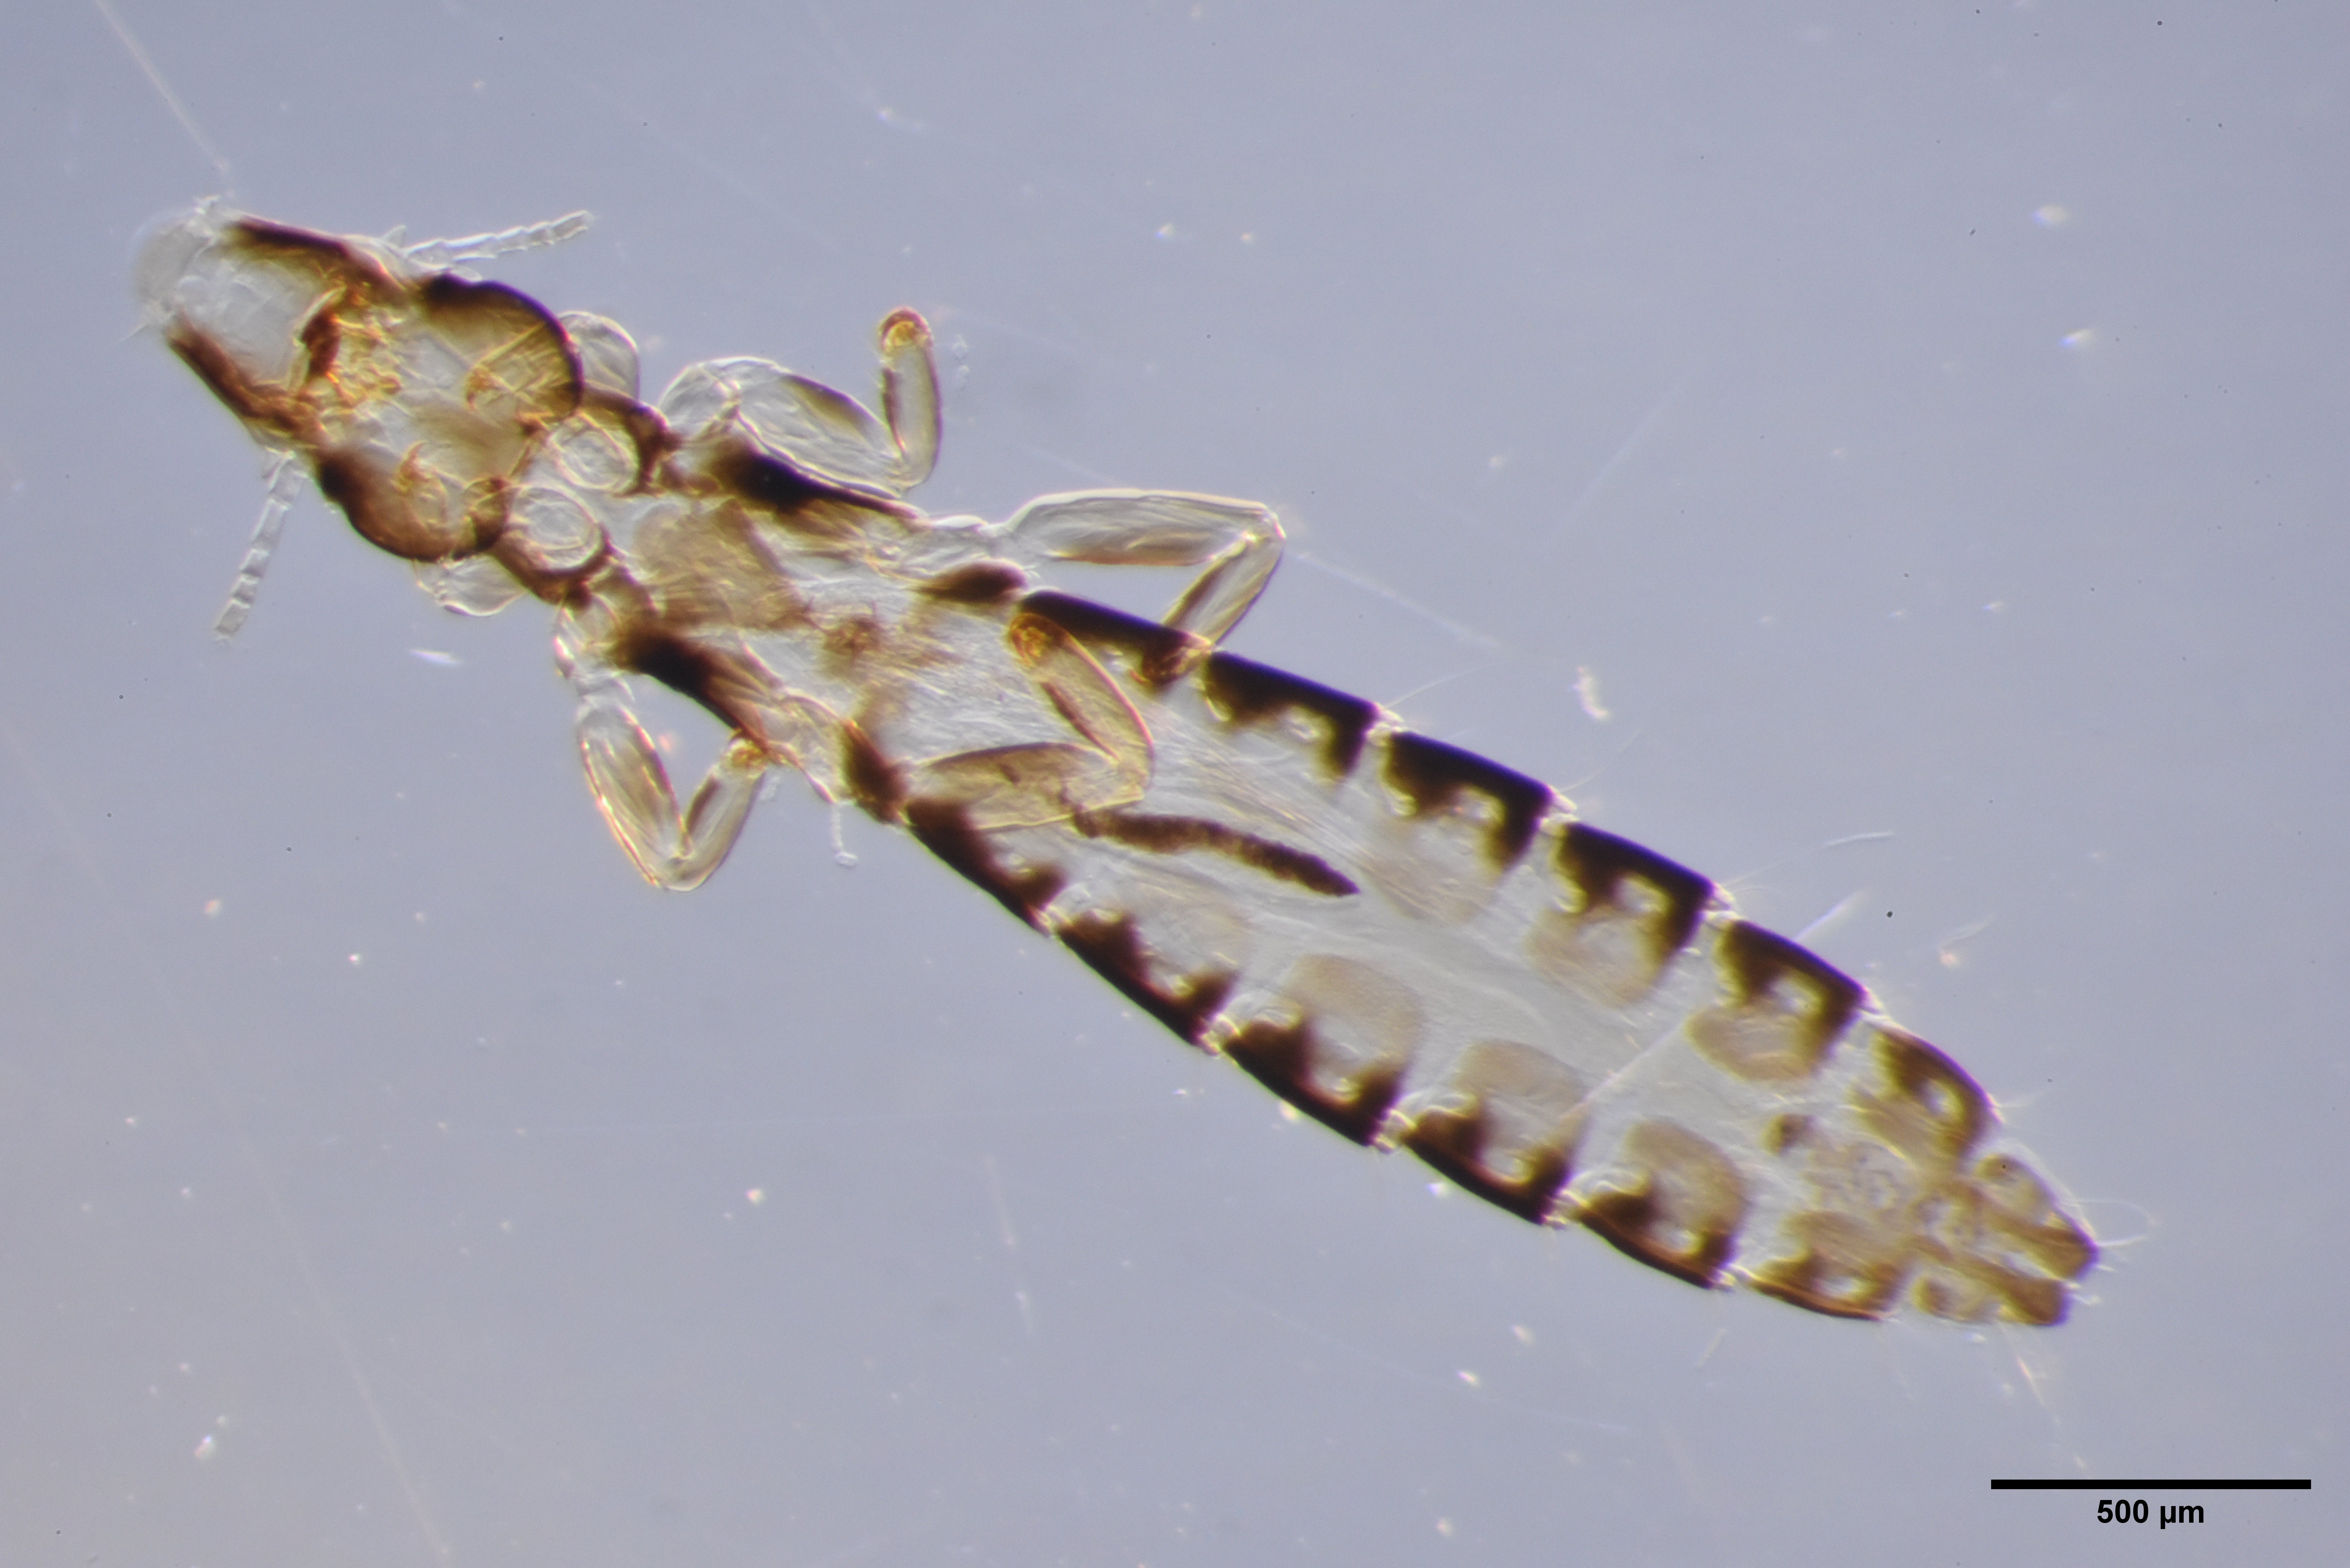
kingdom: Animalia
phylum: Arthropoda
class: Insecta
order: Psocodea
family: Philopteridae
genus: Anaticola
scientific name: Anaticola crassicorne
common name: Louse
